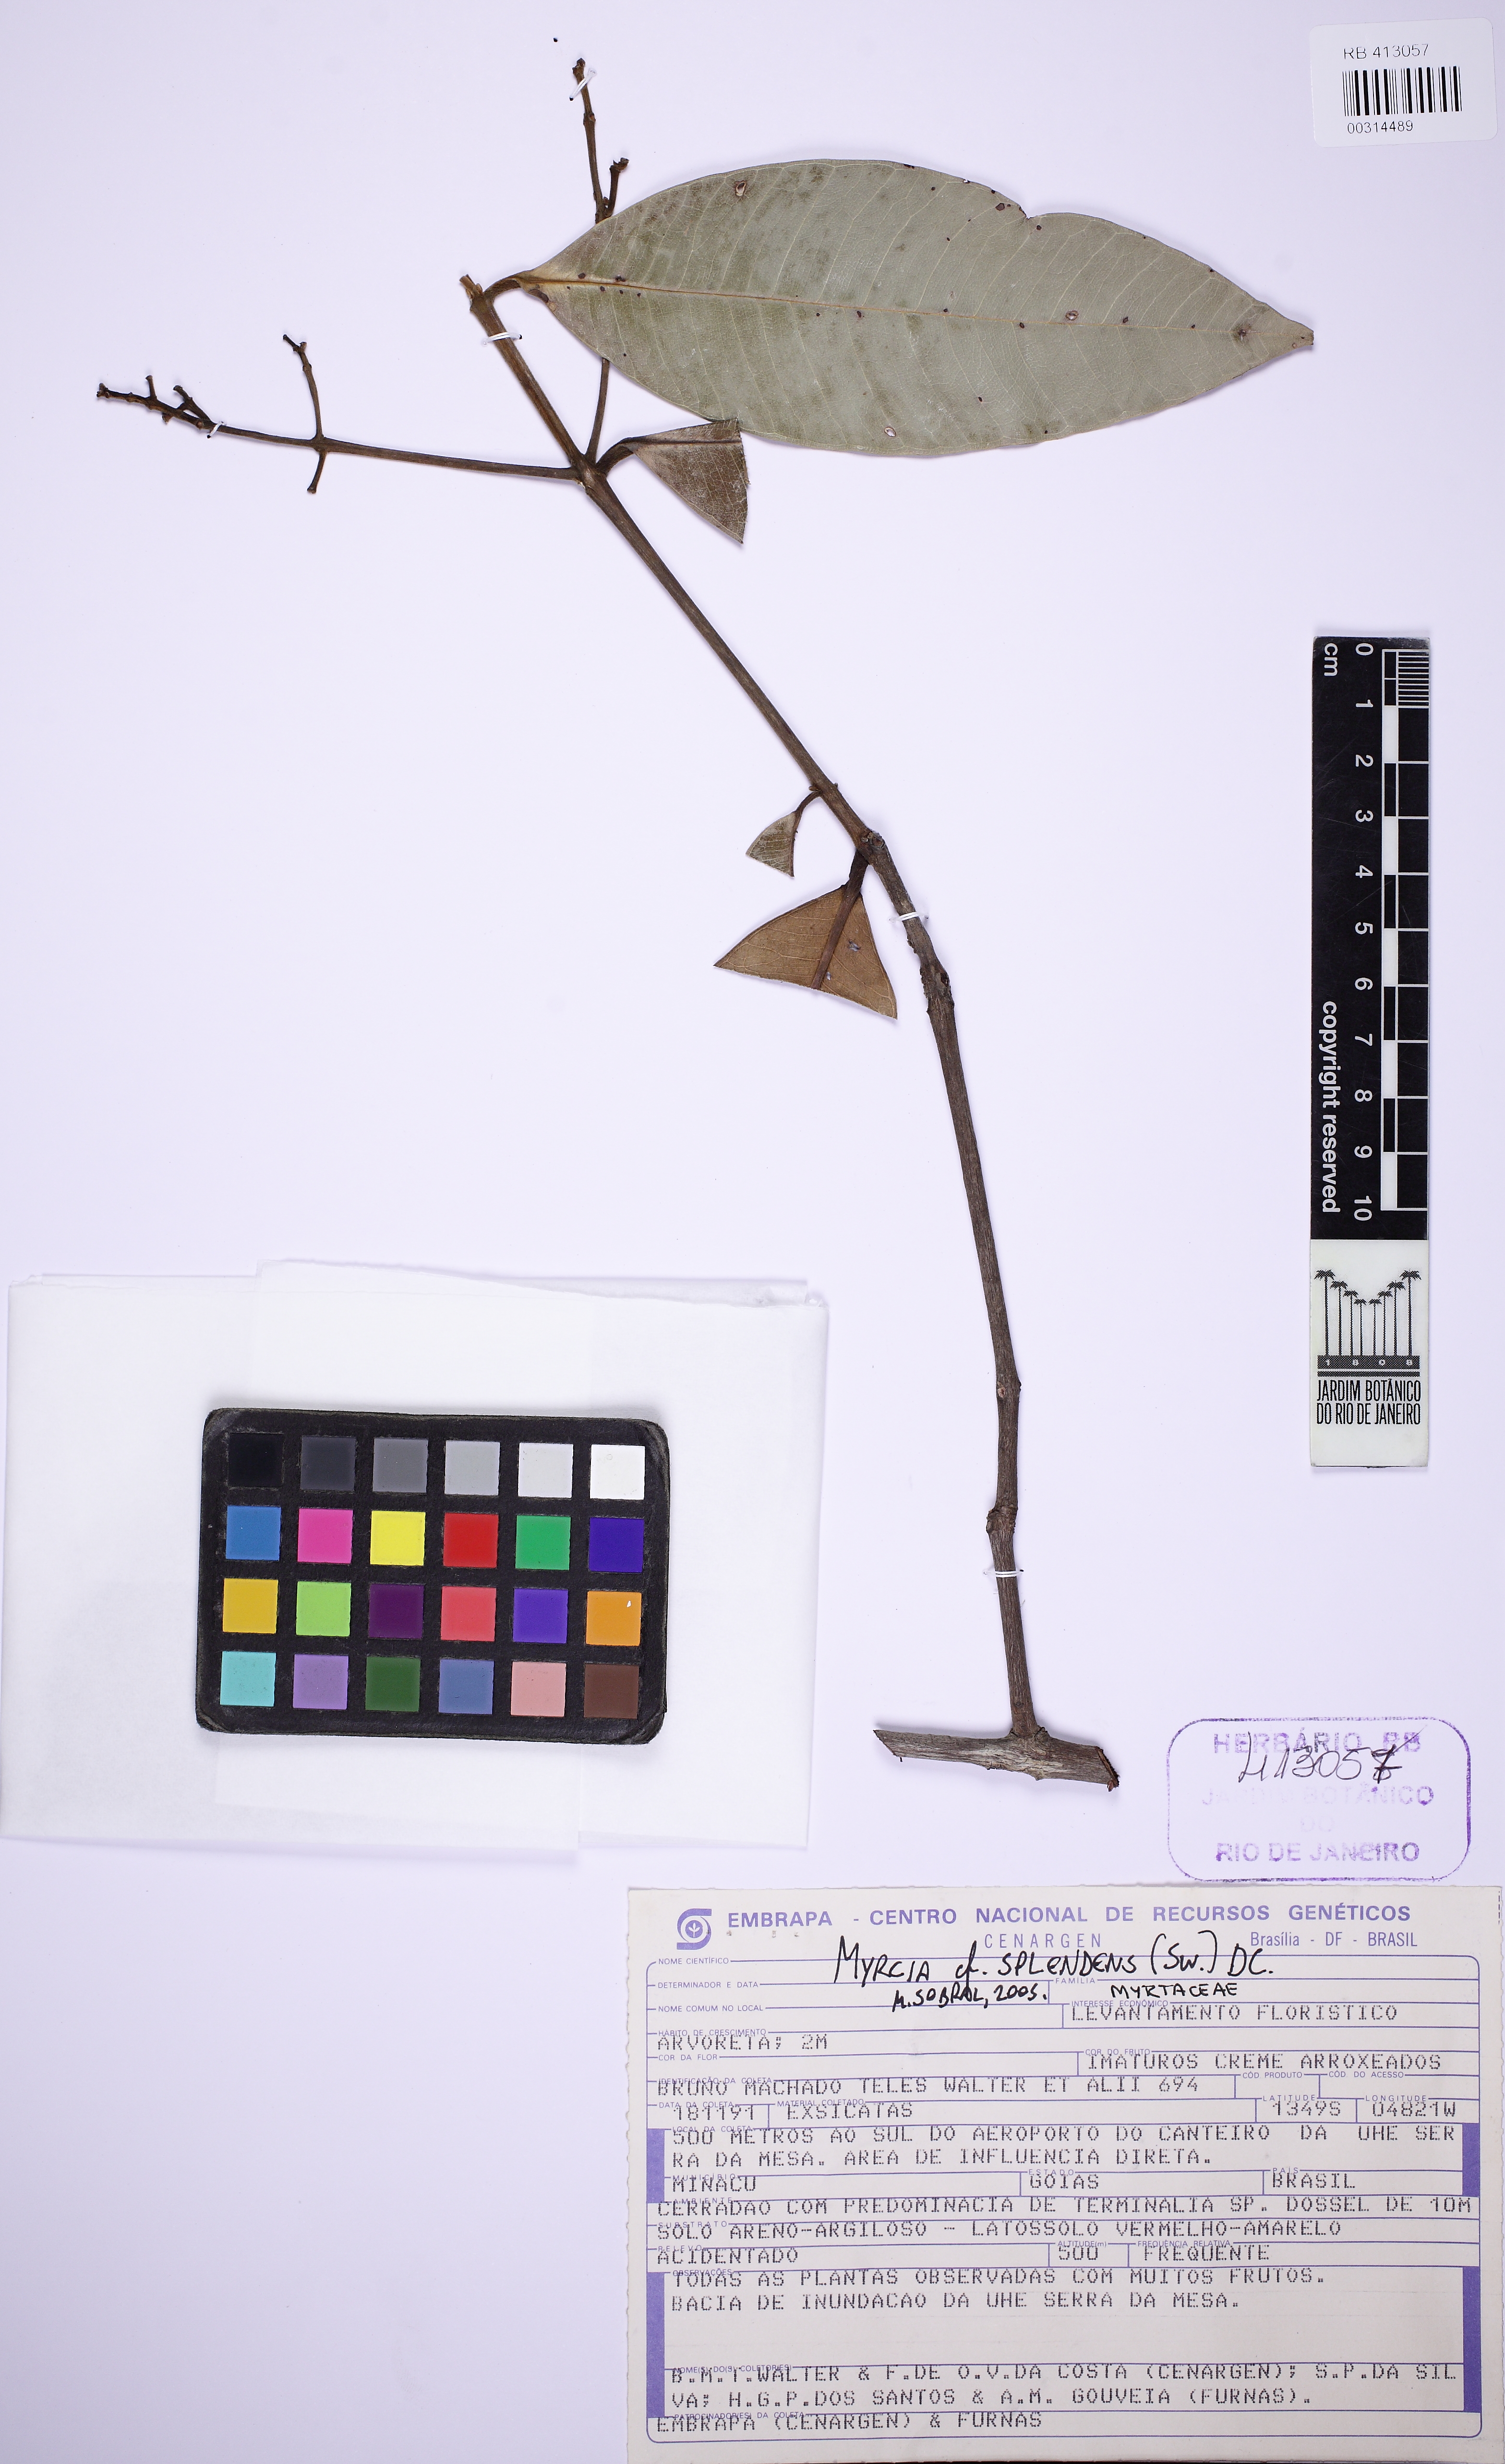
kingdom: Plantae
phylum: Tracheophyta
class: Magnoliopsida
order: Myrtales
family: Myrtaceae
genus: Myrcia
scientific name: Myrcia splendens
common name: Surinam cherry
